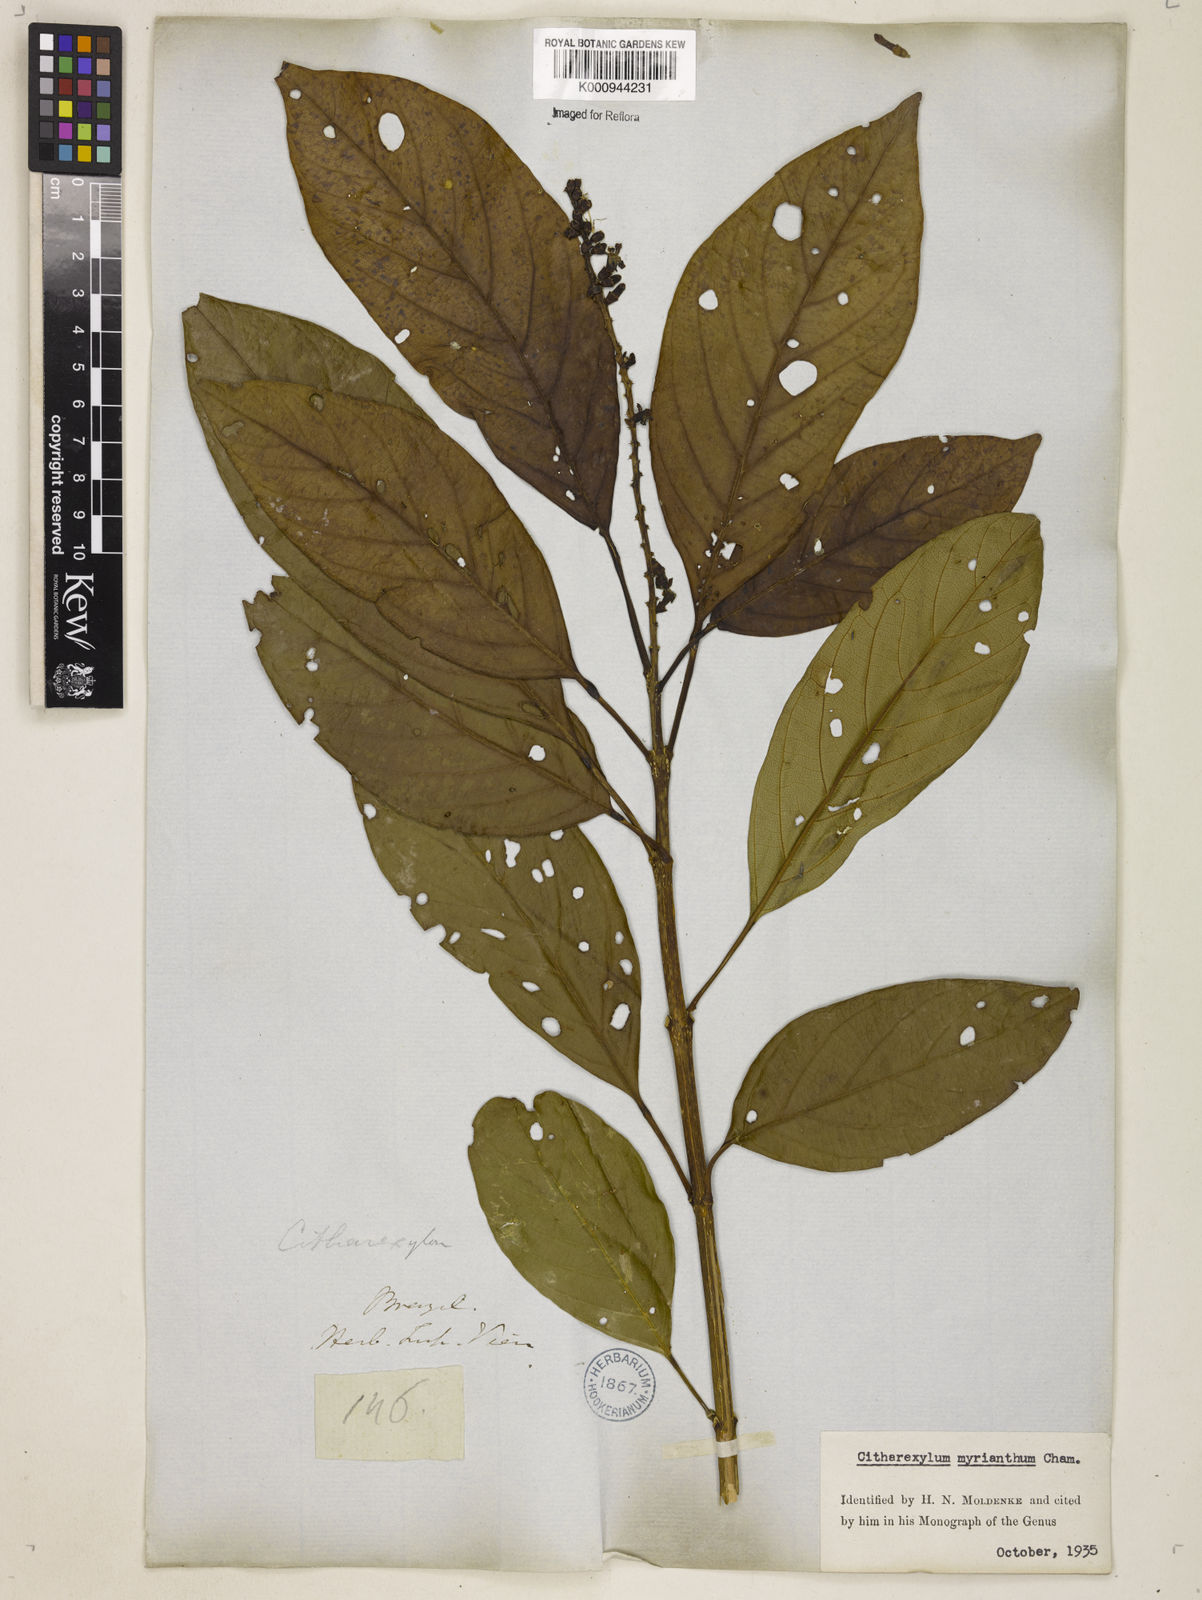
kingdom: Plantae
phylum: Tracheophyta
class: Magnoliopsida
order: Lamiales
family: Verbenaceae
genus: Citharexylum
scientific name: Citharexylum myrianthum
